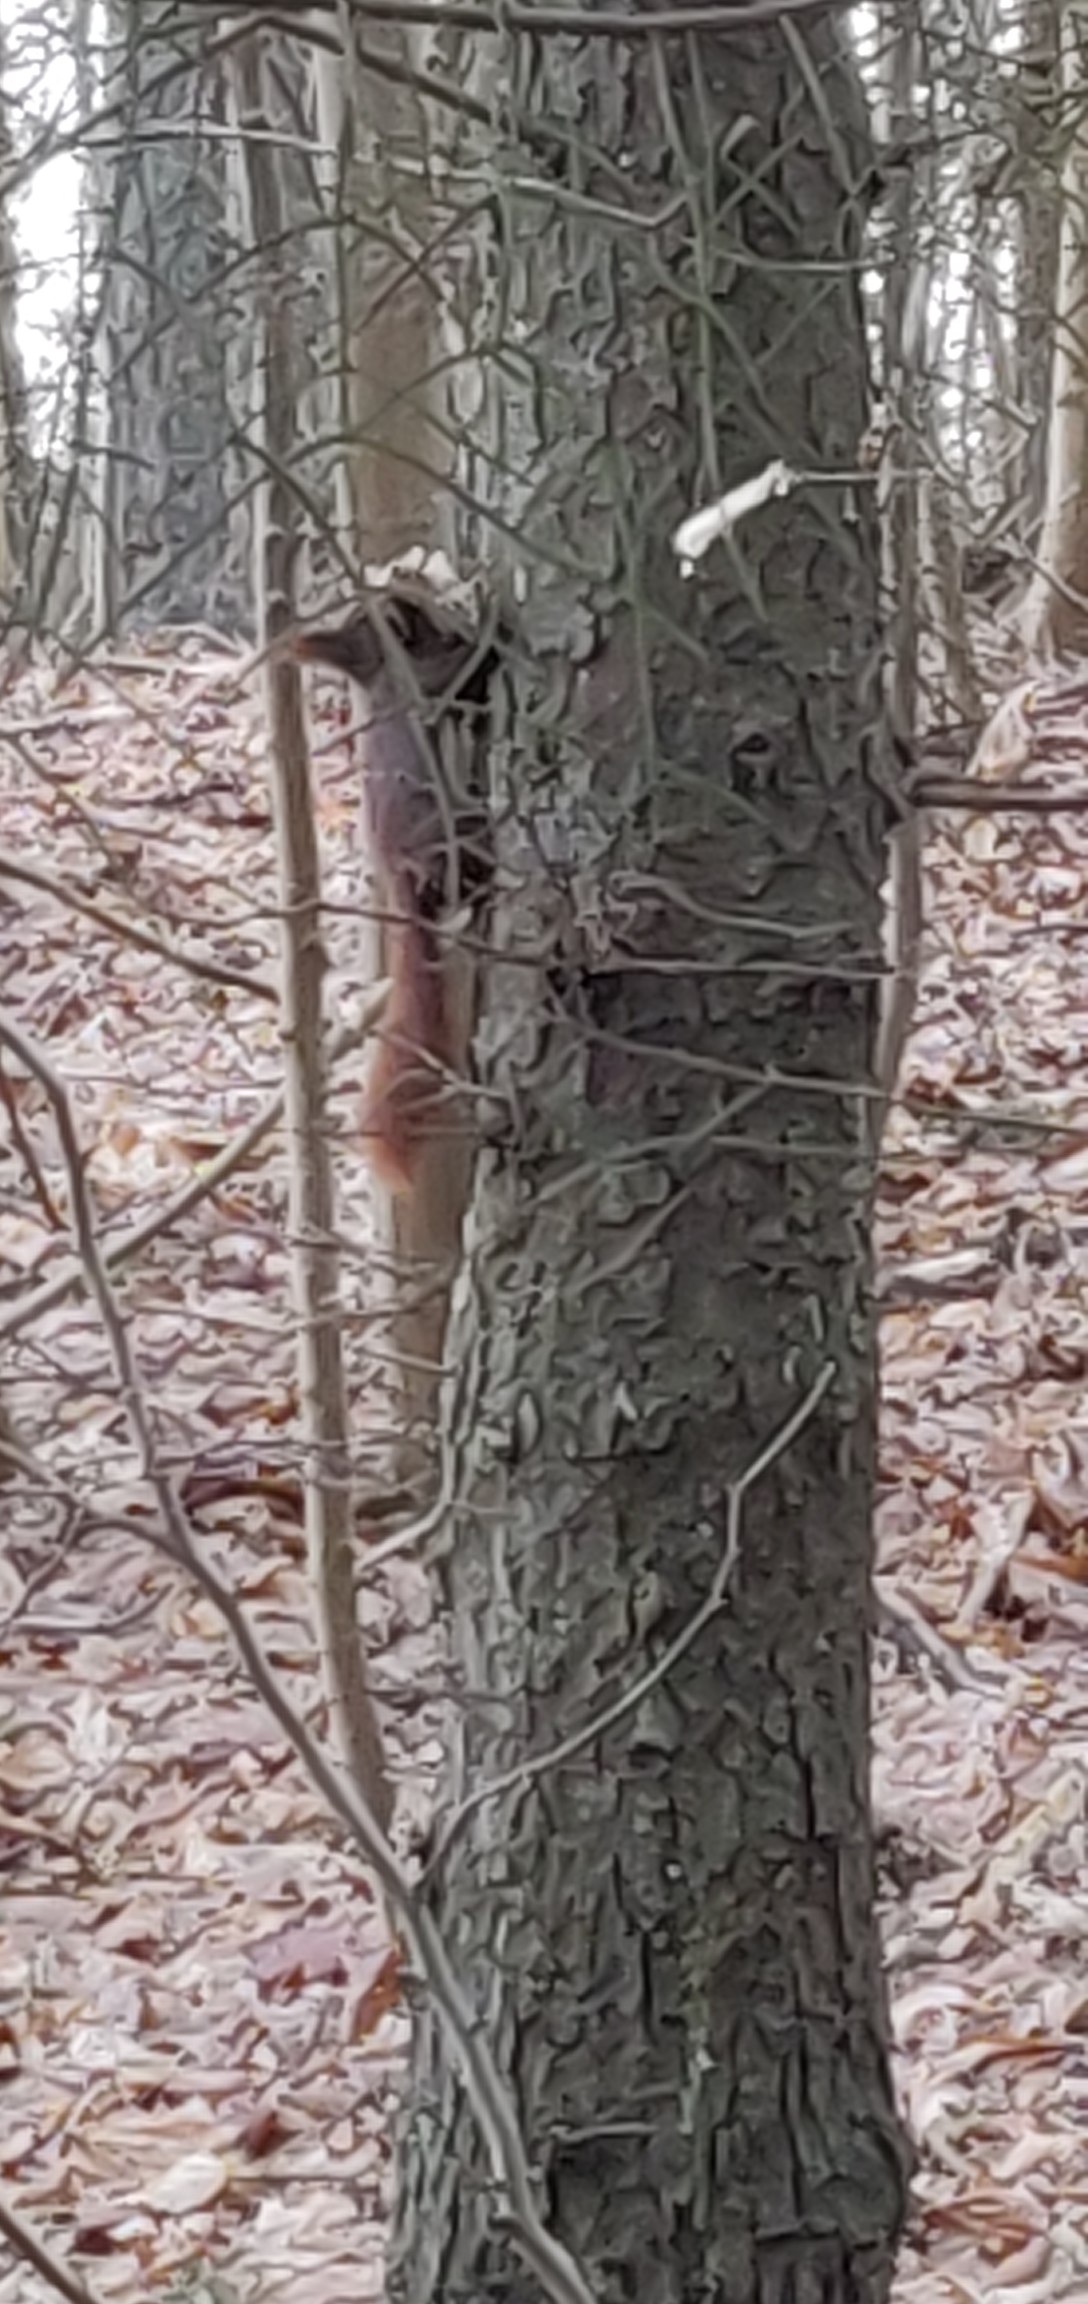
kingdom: Animalia
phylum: Chordata
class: Mammalia
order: Rodentia
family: Sciuridae
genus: Sciurus
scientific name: Sciurus vulgaris
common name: Egern
